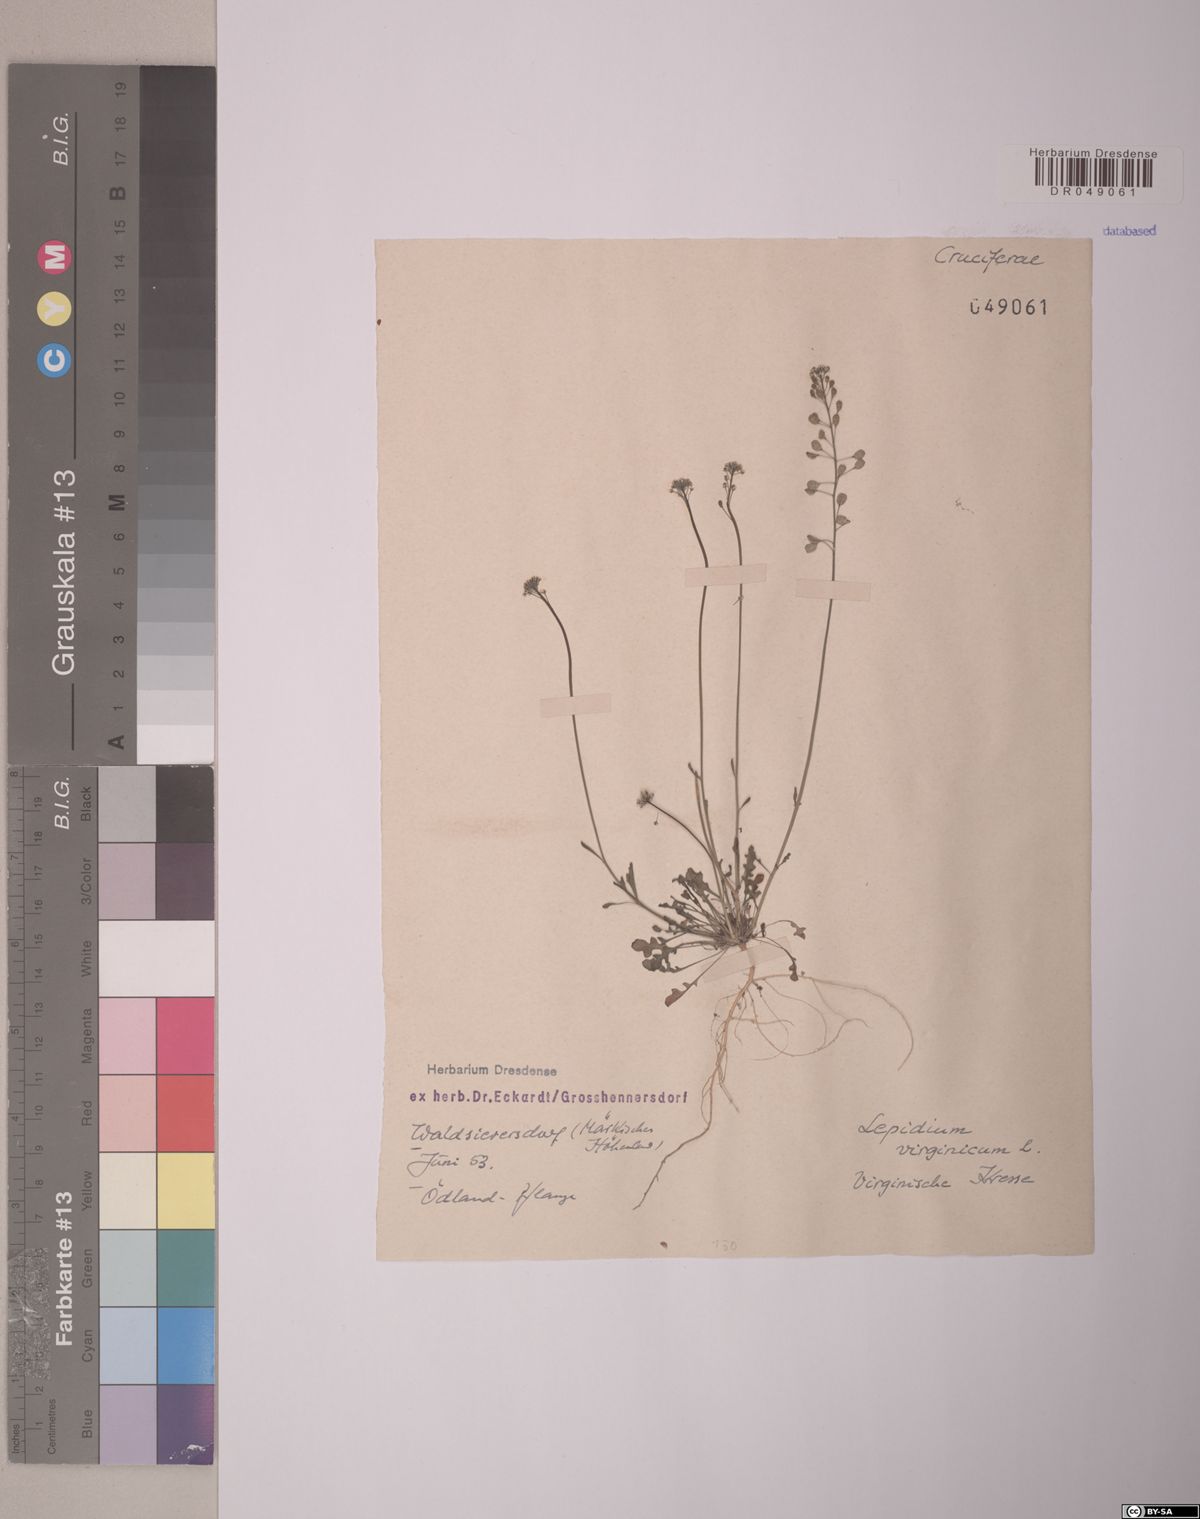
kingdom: Plantae
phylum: Tracheophyta
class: Magnoliopsida
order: Brassicales
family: Brassicaceae
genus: Lepidium
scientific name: Lepidium virginicum
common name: Least pepperwort
